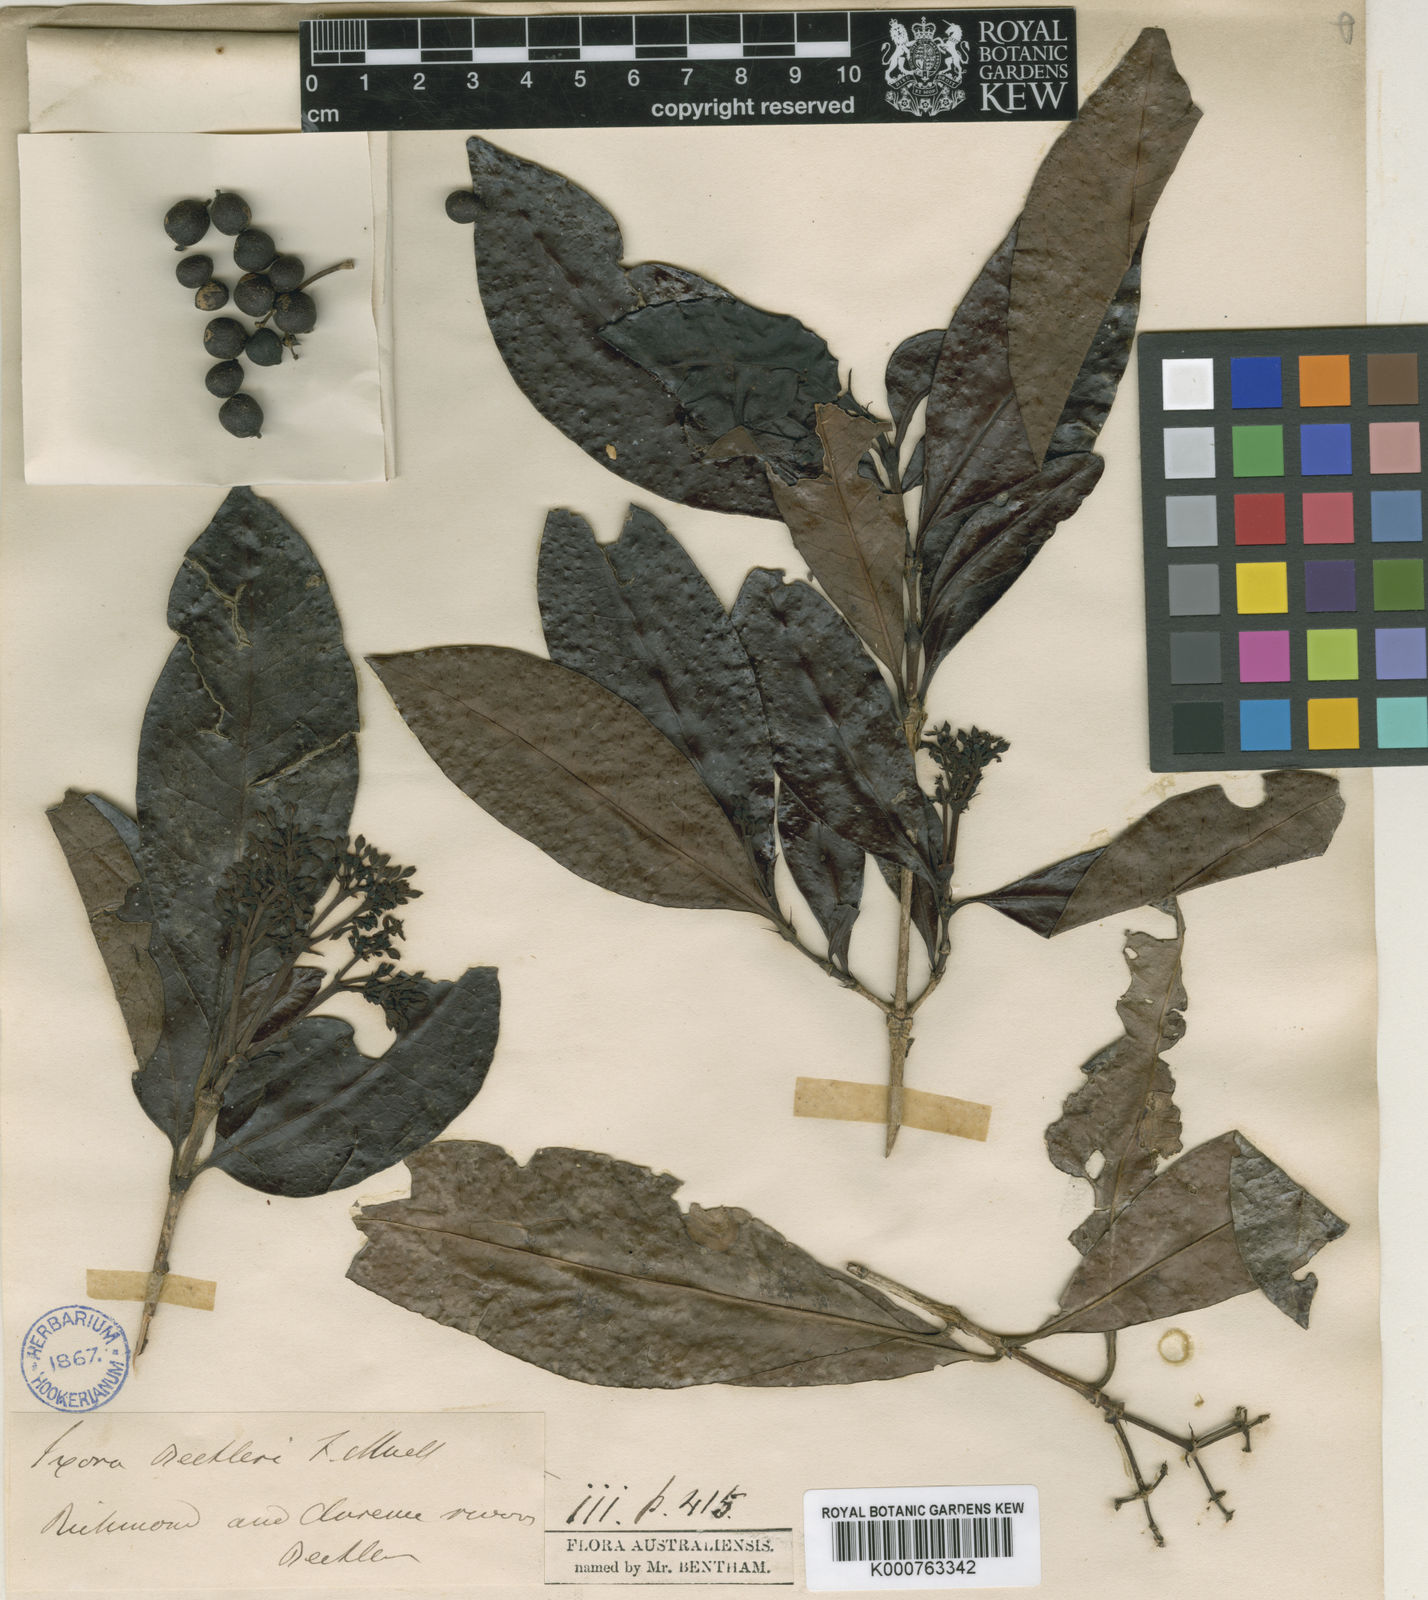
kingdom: Plantae
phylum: Tracheophyta
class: Magnoliopsida
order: Gentianales
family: Rubiaceae
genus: Ixora
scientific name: Ixora beckleri
